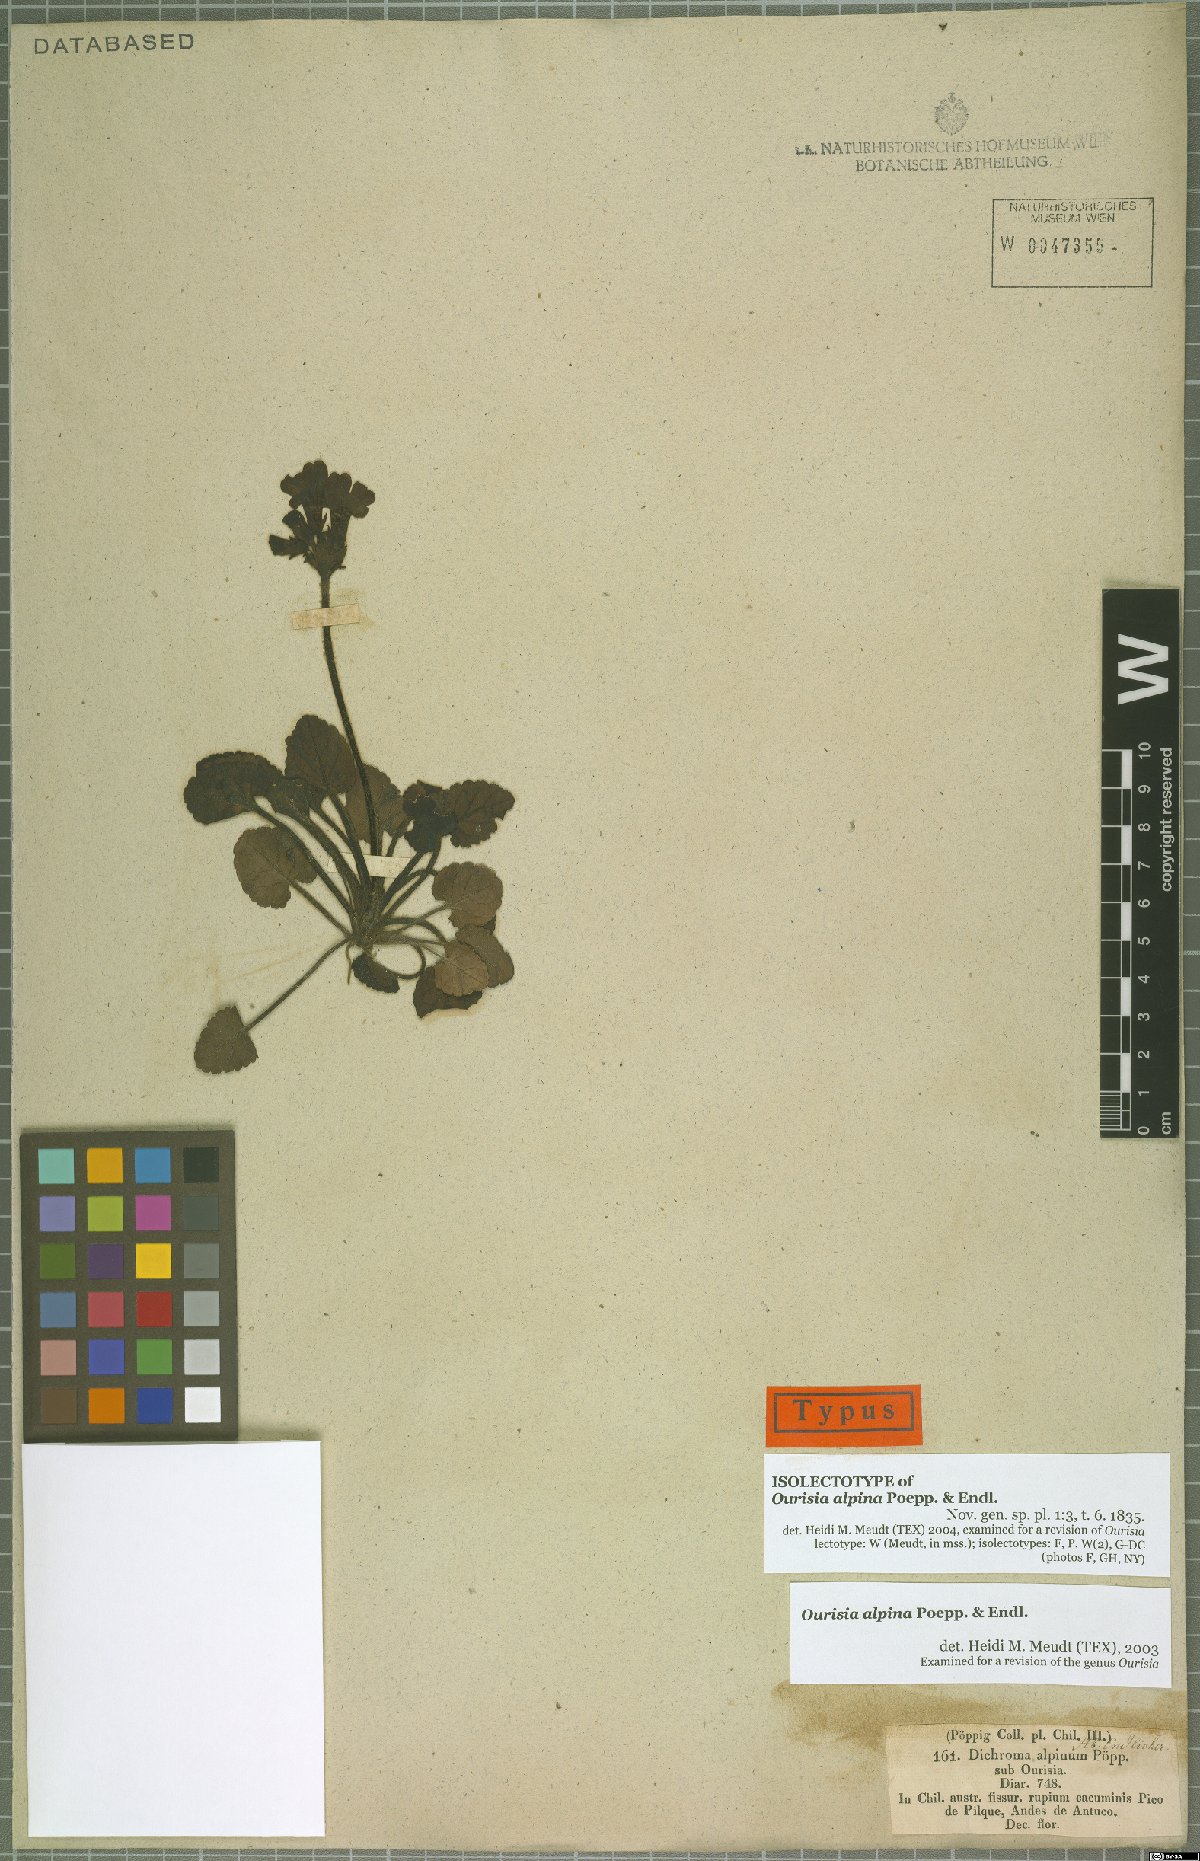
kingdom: Plantae
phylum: Tracheophyta
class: Magnoliopsida
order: Lamiales
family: Plantaginaceae
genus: Ourisia
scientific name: Ourisia alpina
